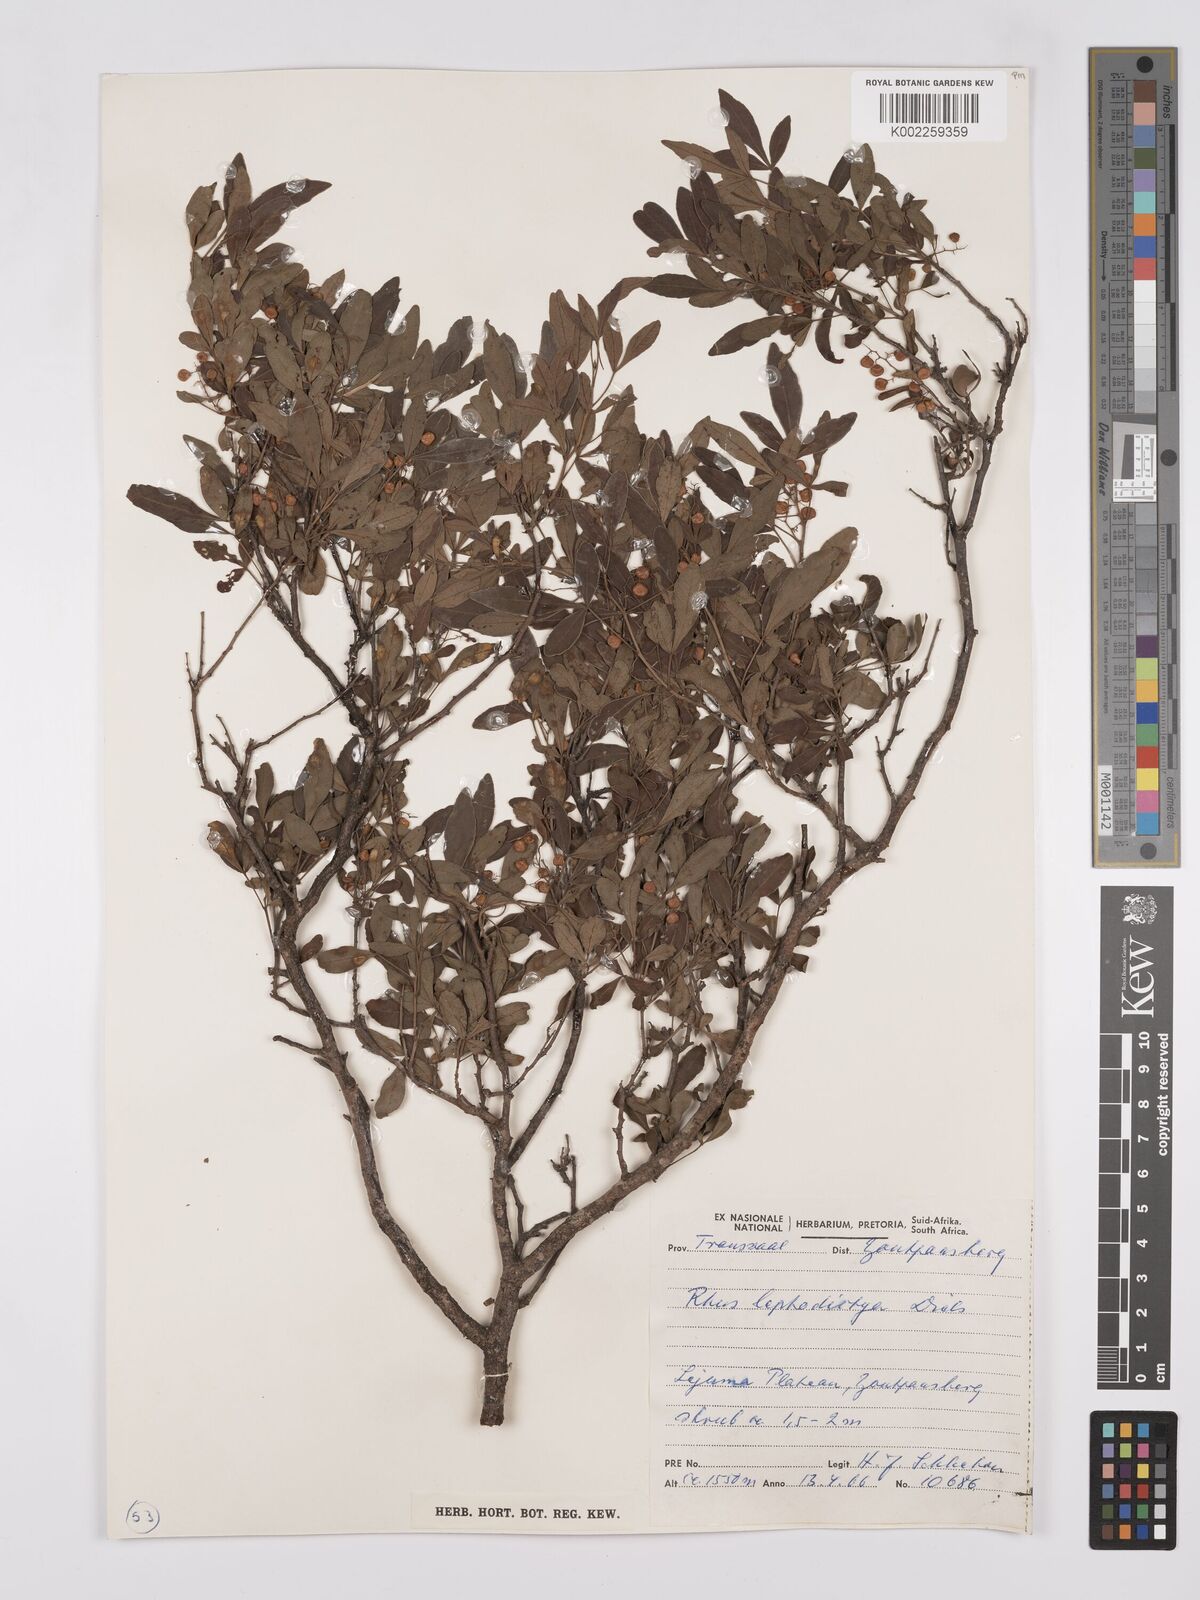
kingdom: Plantae
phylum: Tracheophyta
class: Magnoliopsida
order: Sapindales
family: Anacardiaceae
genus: Searsia
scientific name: Searsia leptodictya
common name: Mountain karee
